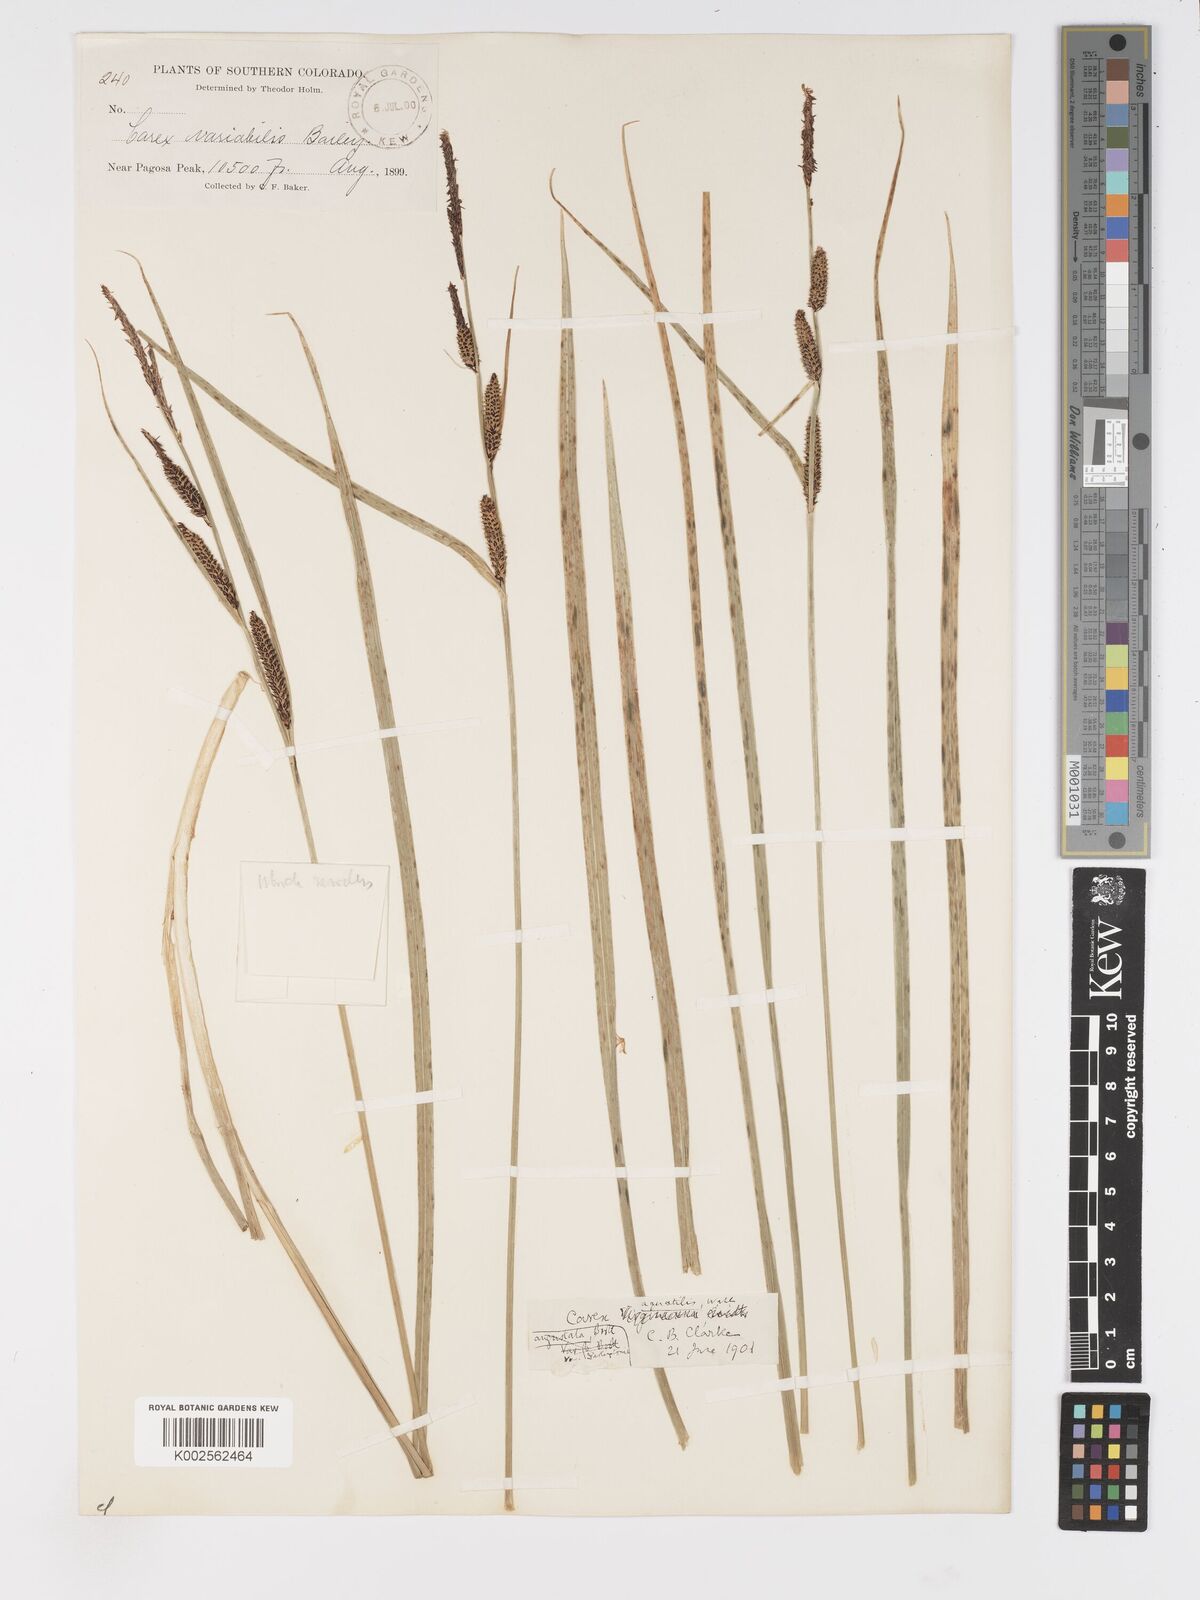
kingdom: Plantae
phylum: Tracheophyta
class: Liliopsida
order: Poales
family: Cyperaceae
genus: Carex
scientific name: Carex
